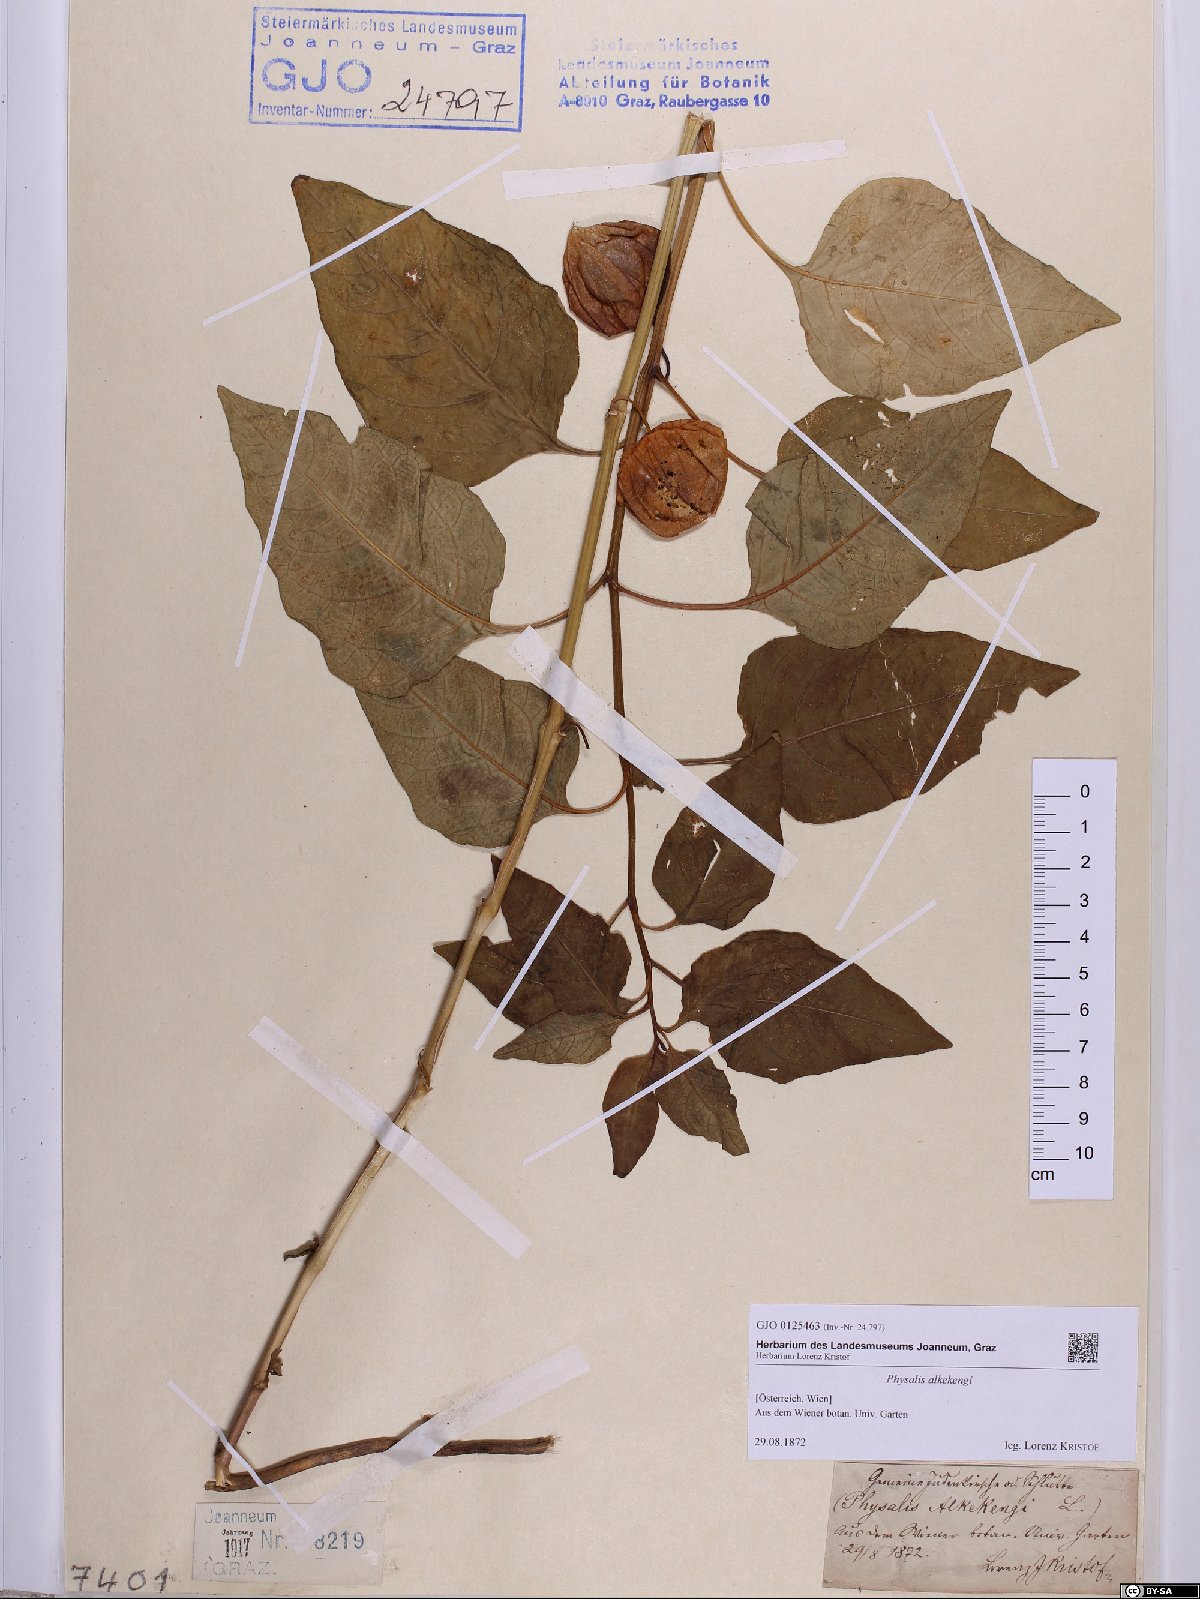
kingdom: Plantae
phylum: Tracheophyta
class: Magnoliopsida
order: Solanales
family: Solanaceae
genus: Alkekengi
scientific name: Alkekengi officinarum
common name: Japanese-lantern
